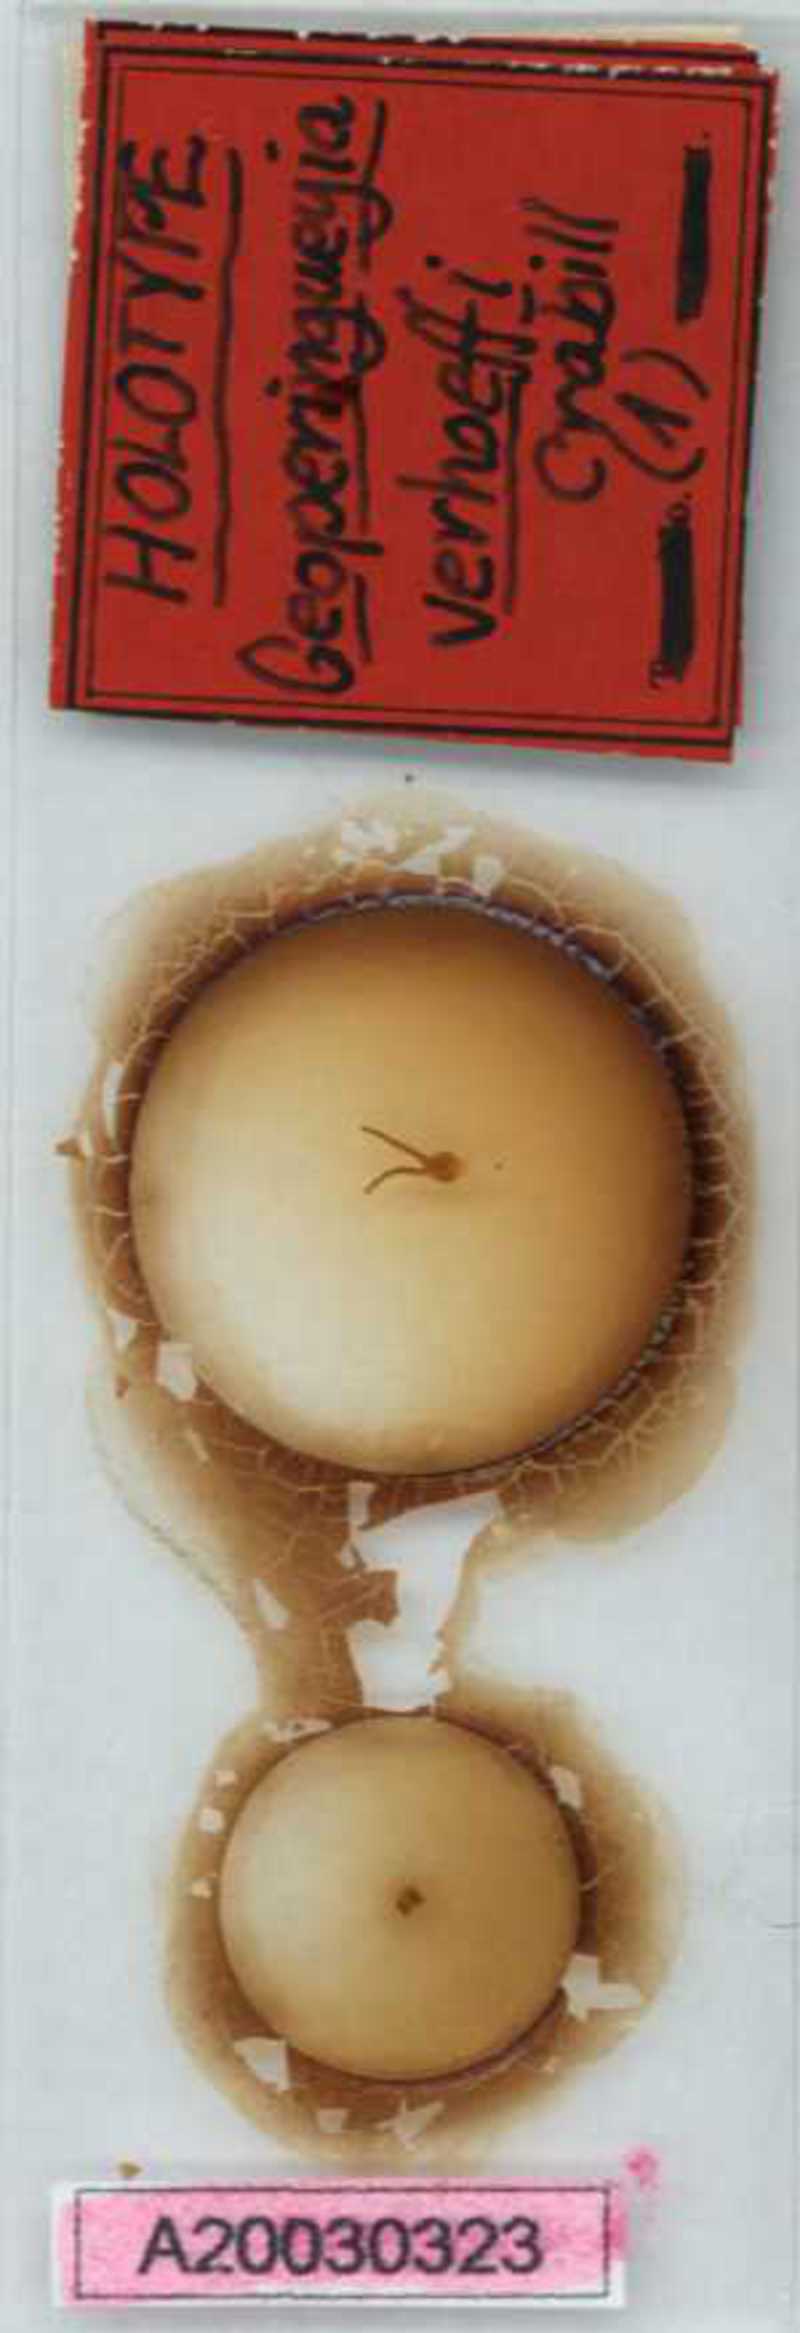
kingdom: Animalia
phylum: Arthropoda
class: Chilopoda
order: Geophilomorpha
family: Geophilidae
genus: Geoperingueyia
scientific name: Geoperingueyia
